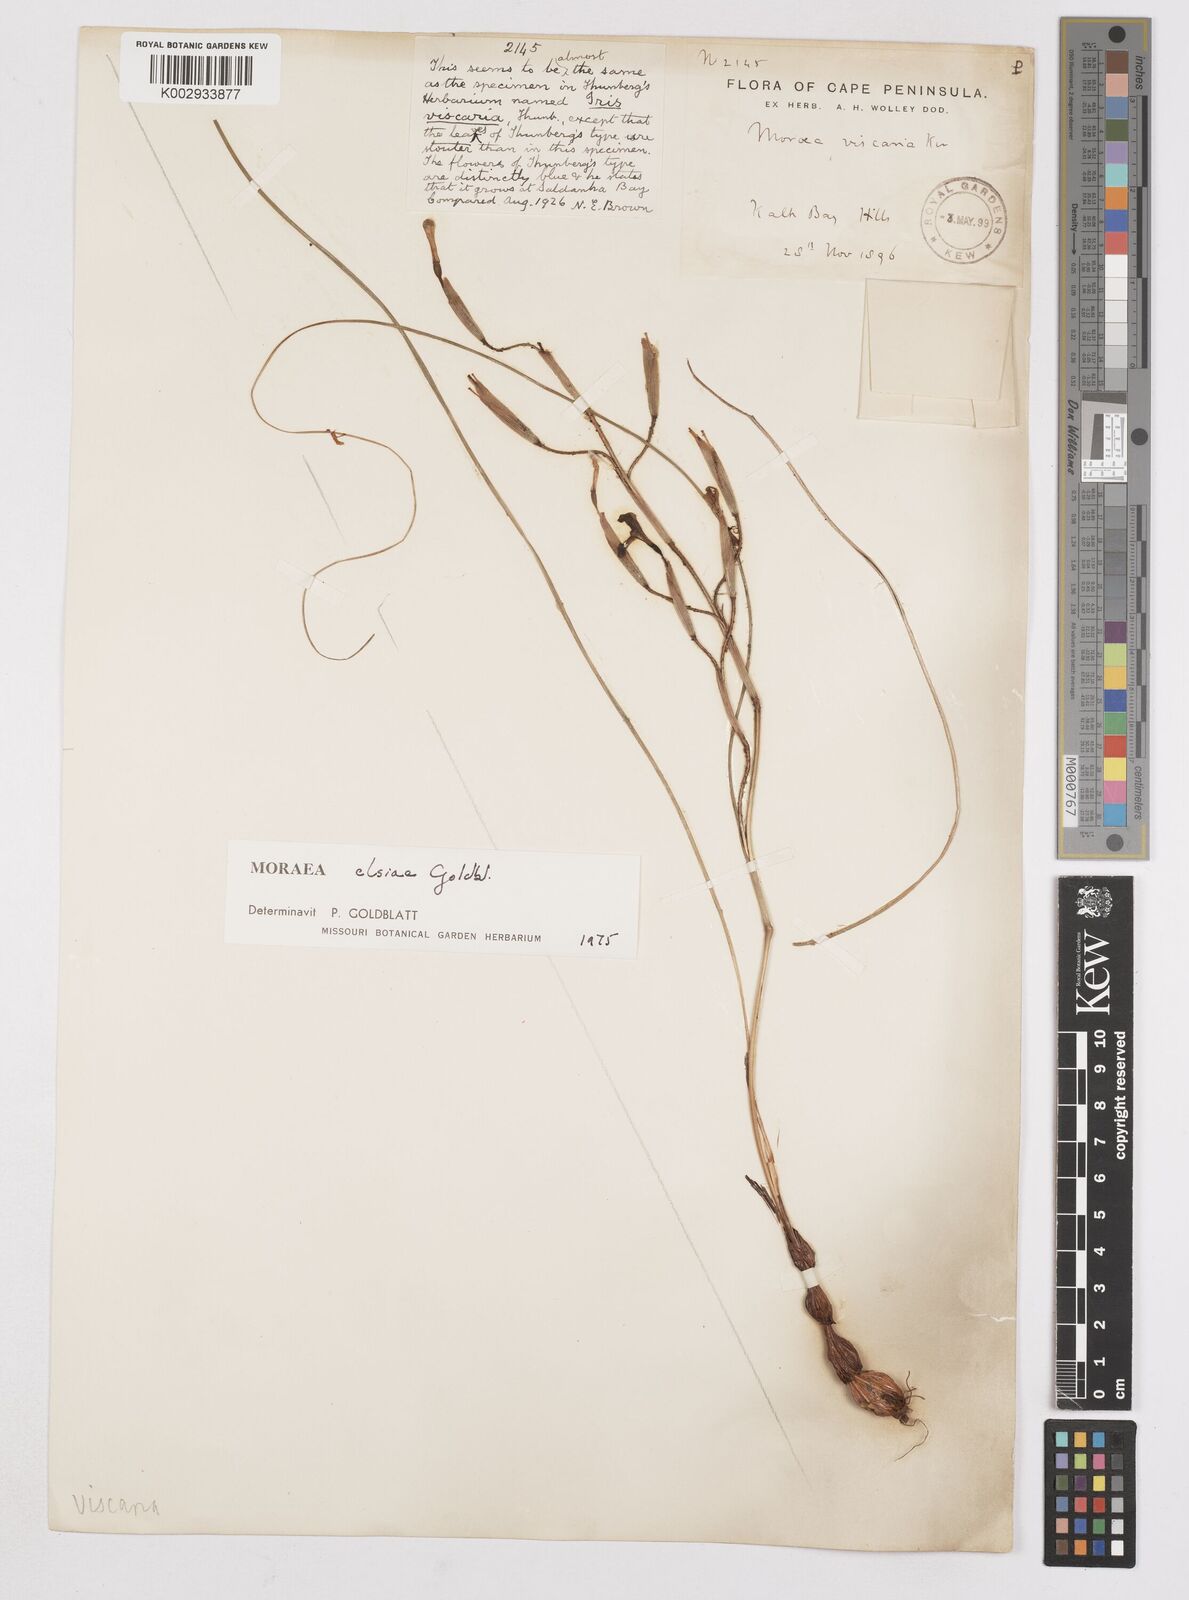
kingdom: Plantae
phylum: Tracheophyta
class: Liliopsida
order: Asparagales
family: Iridaceae
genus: Moraea
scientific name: Moraea elsiae
